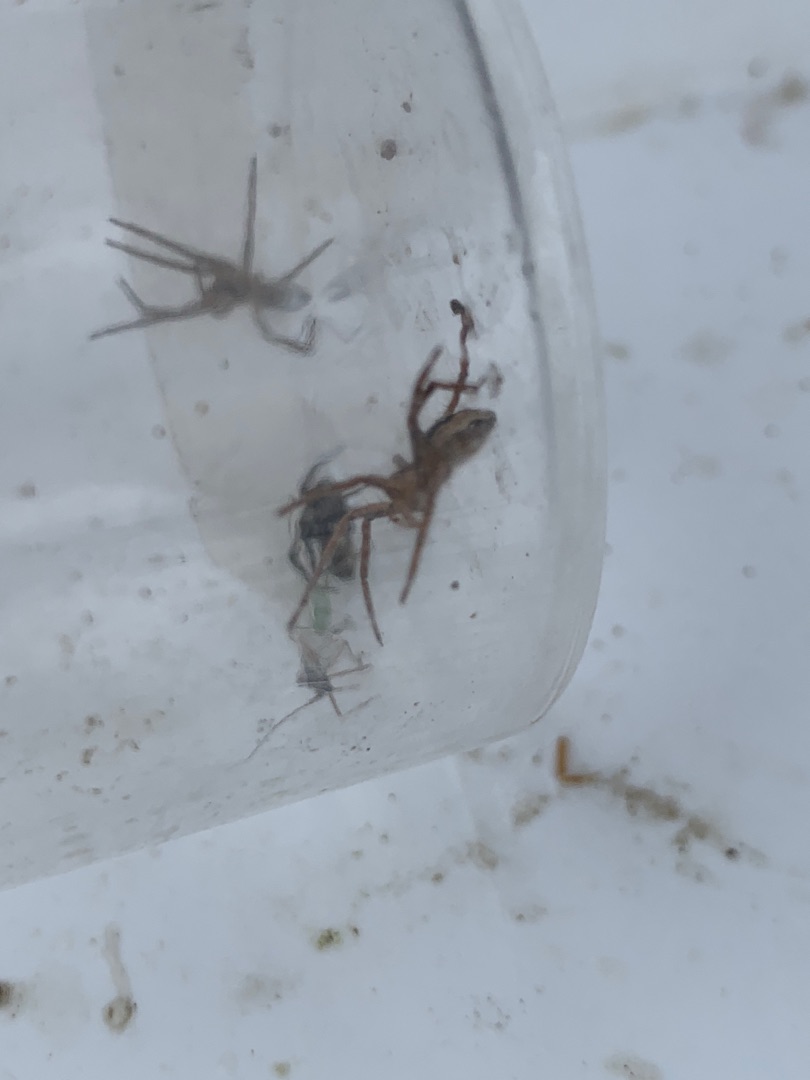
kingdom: Animalia
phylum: Arthropoda
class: Arachnida
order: Araneae
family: Pisauridae
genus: Pisaura
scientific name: Pisaura mirabilis
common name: Almindelig rovedderkop
